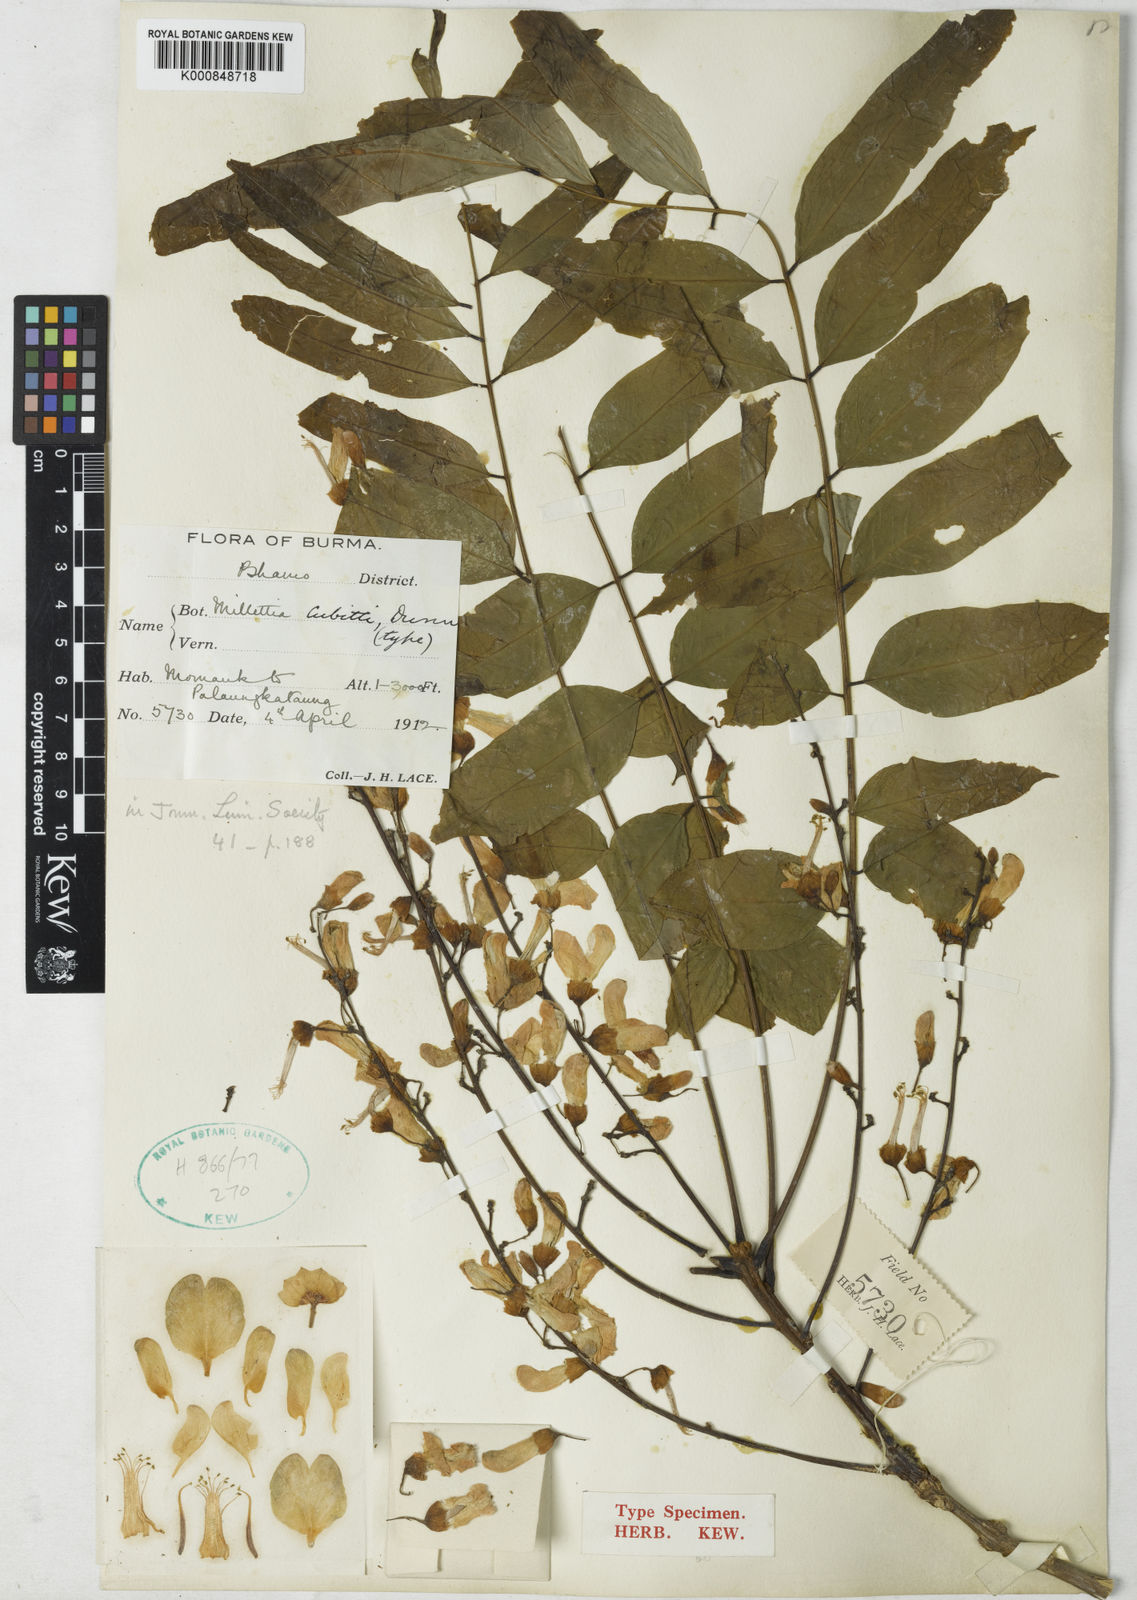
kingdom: Plantae
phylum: Tracheophyta
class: Magnoliopsida
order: Fabales
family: Fabaceae
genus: Millettia
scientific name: Millettia cubittii
